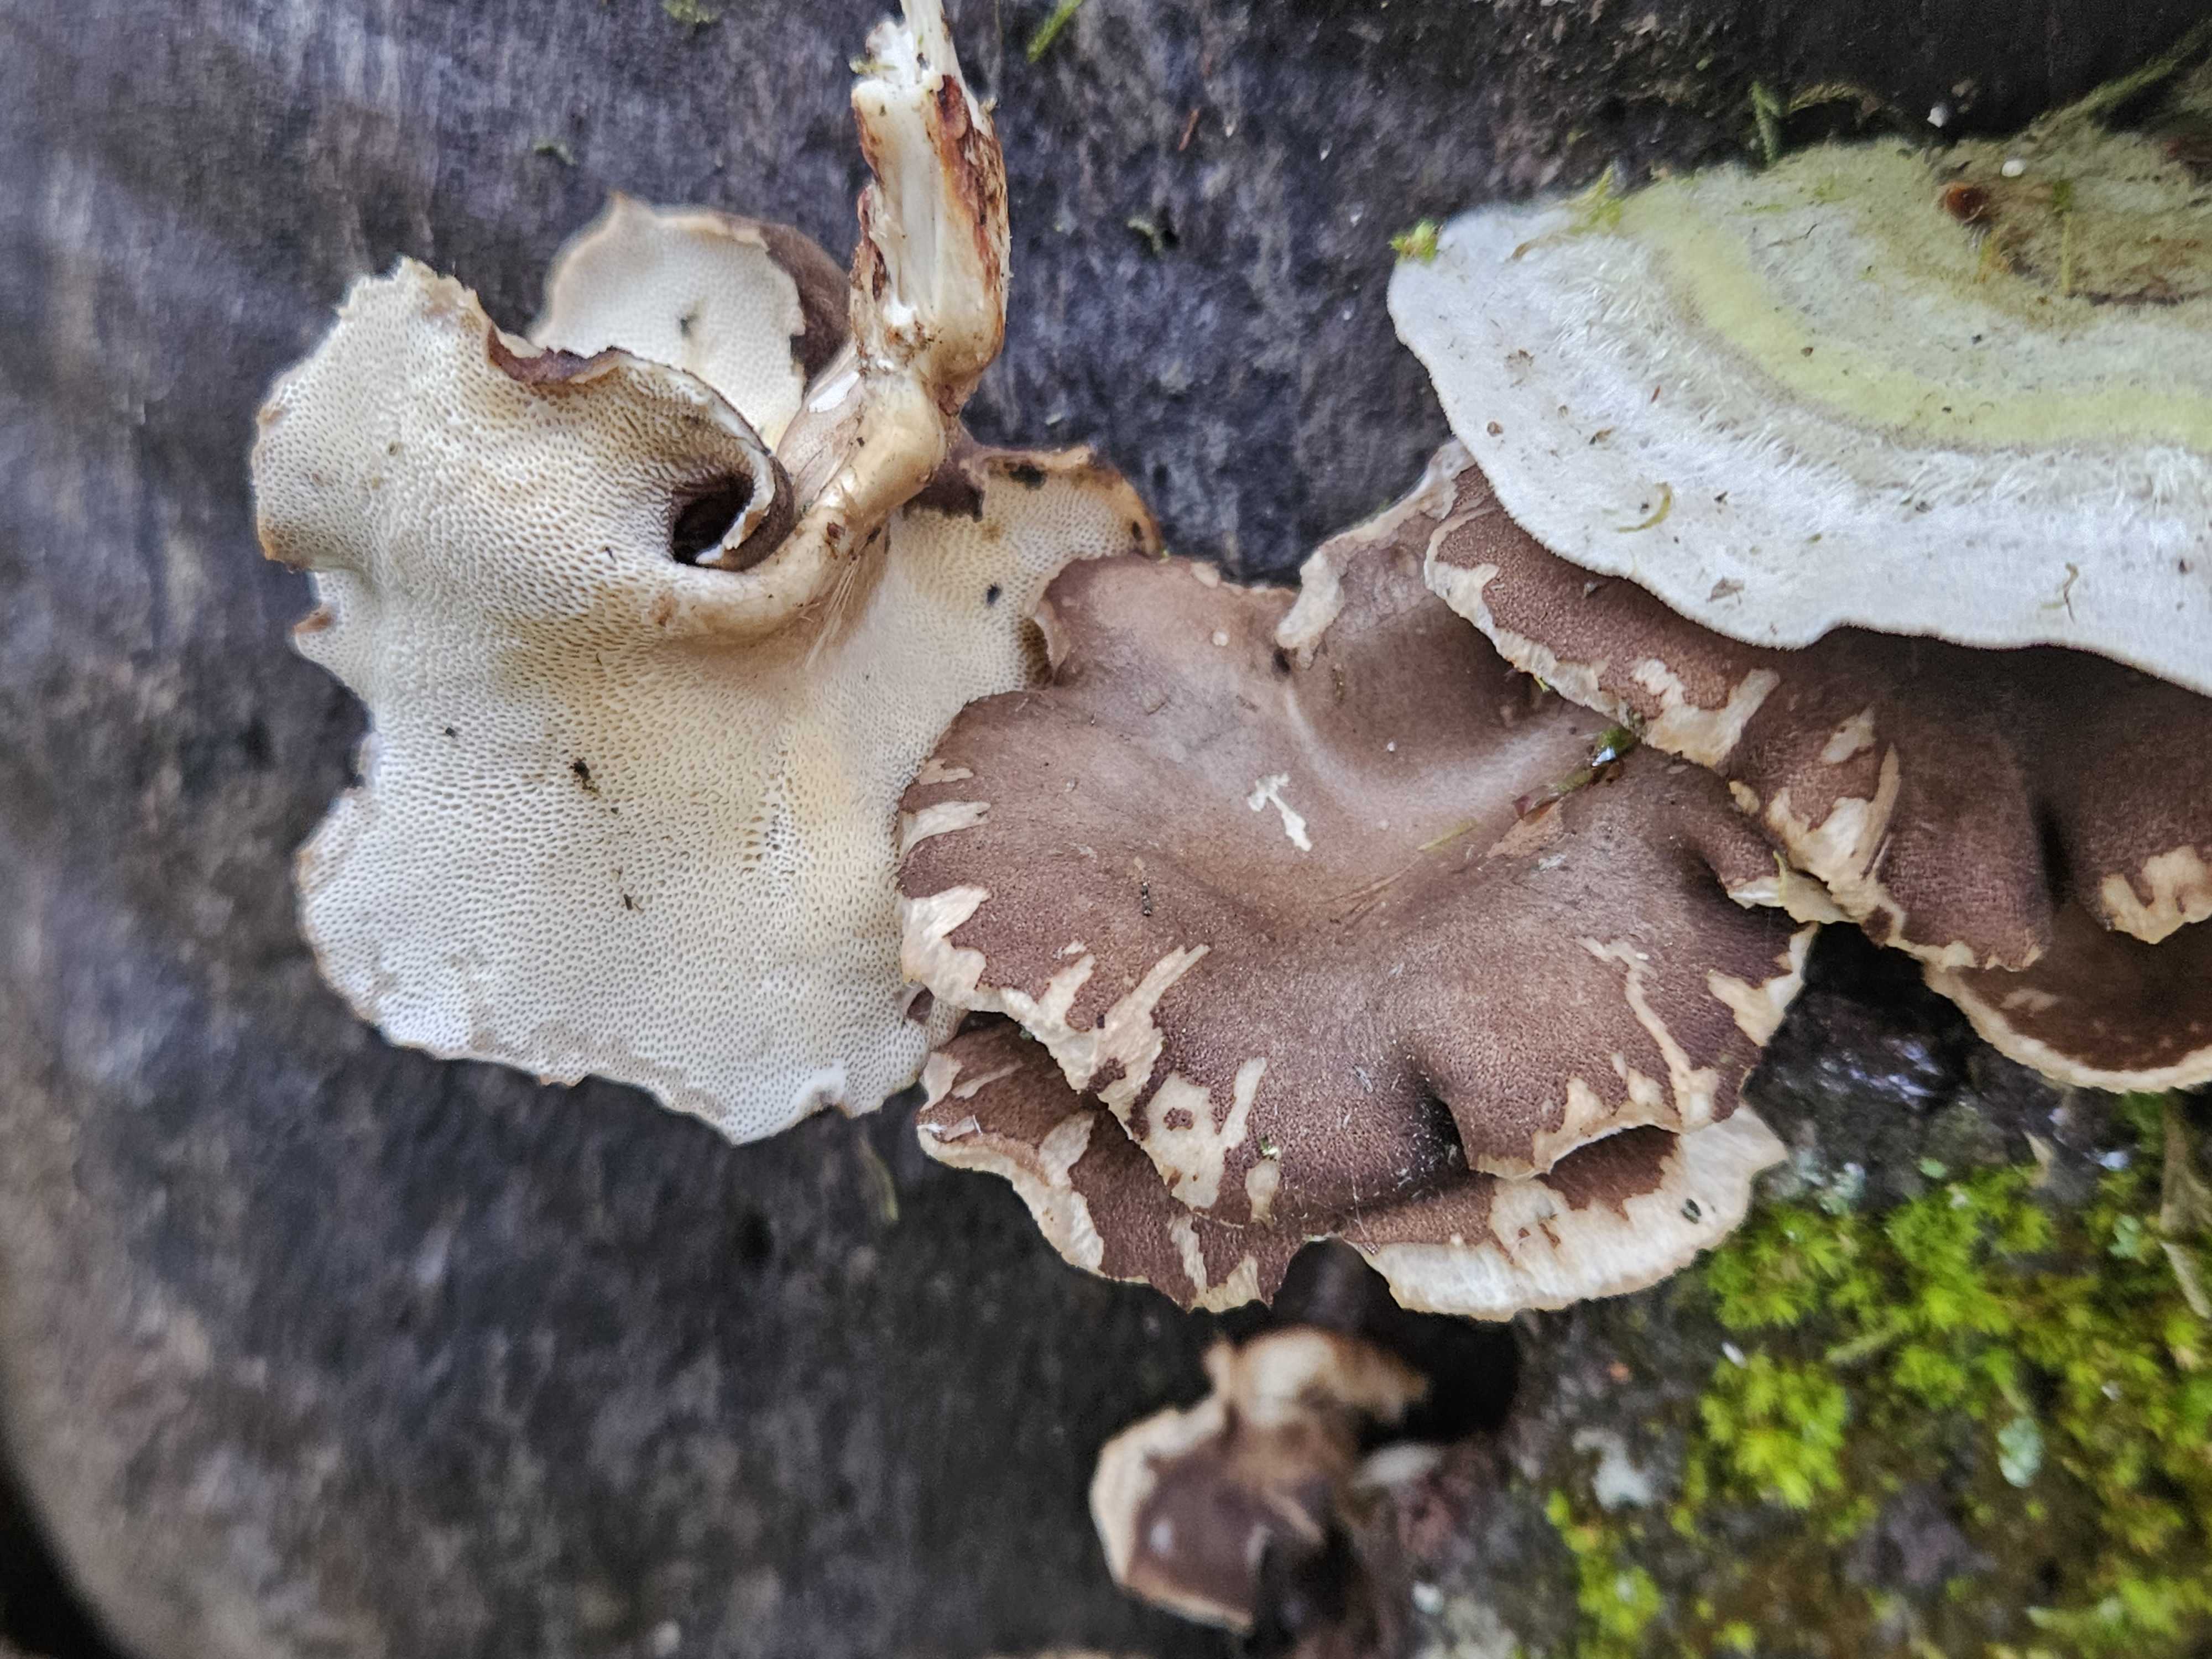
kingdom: Fungi
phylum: Basidiomycota
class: Agaricomycetes
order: Polyporales
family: Polyporaceae
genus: Lentinus
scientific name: Lentinus brumalis
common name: vinter-stilkporesvamp
